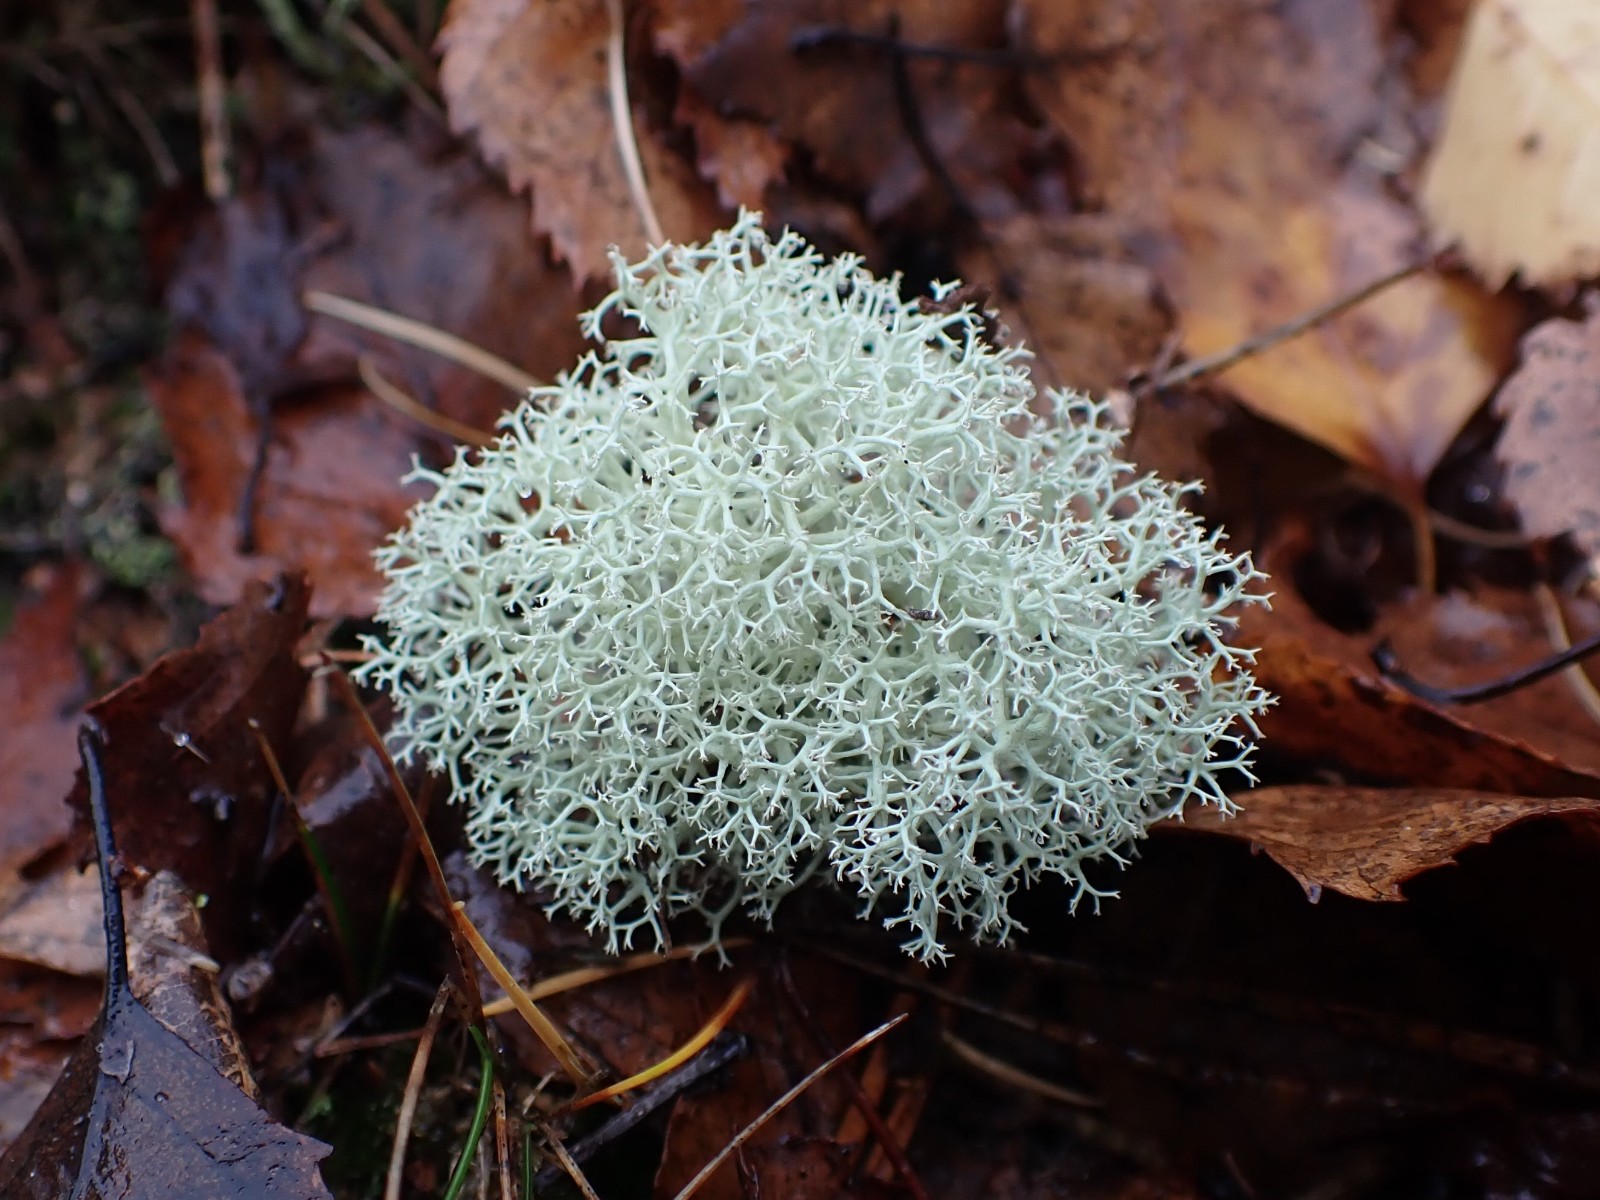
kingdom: Fungi
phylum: Ascomycota
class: Lecanoromycetes
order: Lecanorales
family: Cladoniaceae
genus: Cladonia
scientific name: Cladonia portentosa
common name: hede-rensdyrlav
